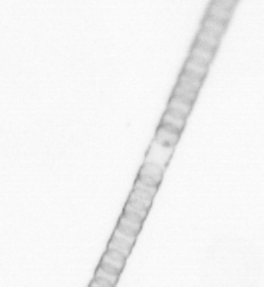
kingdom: Chromista
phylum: Ochrophyta
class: Bacillariophyceae
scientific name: Bacillariophyceae
